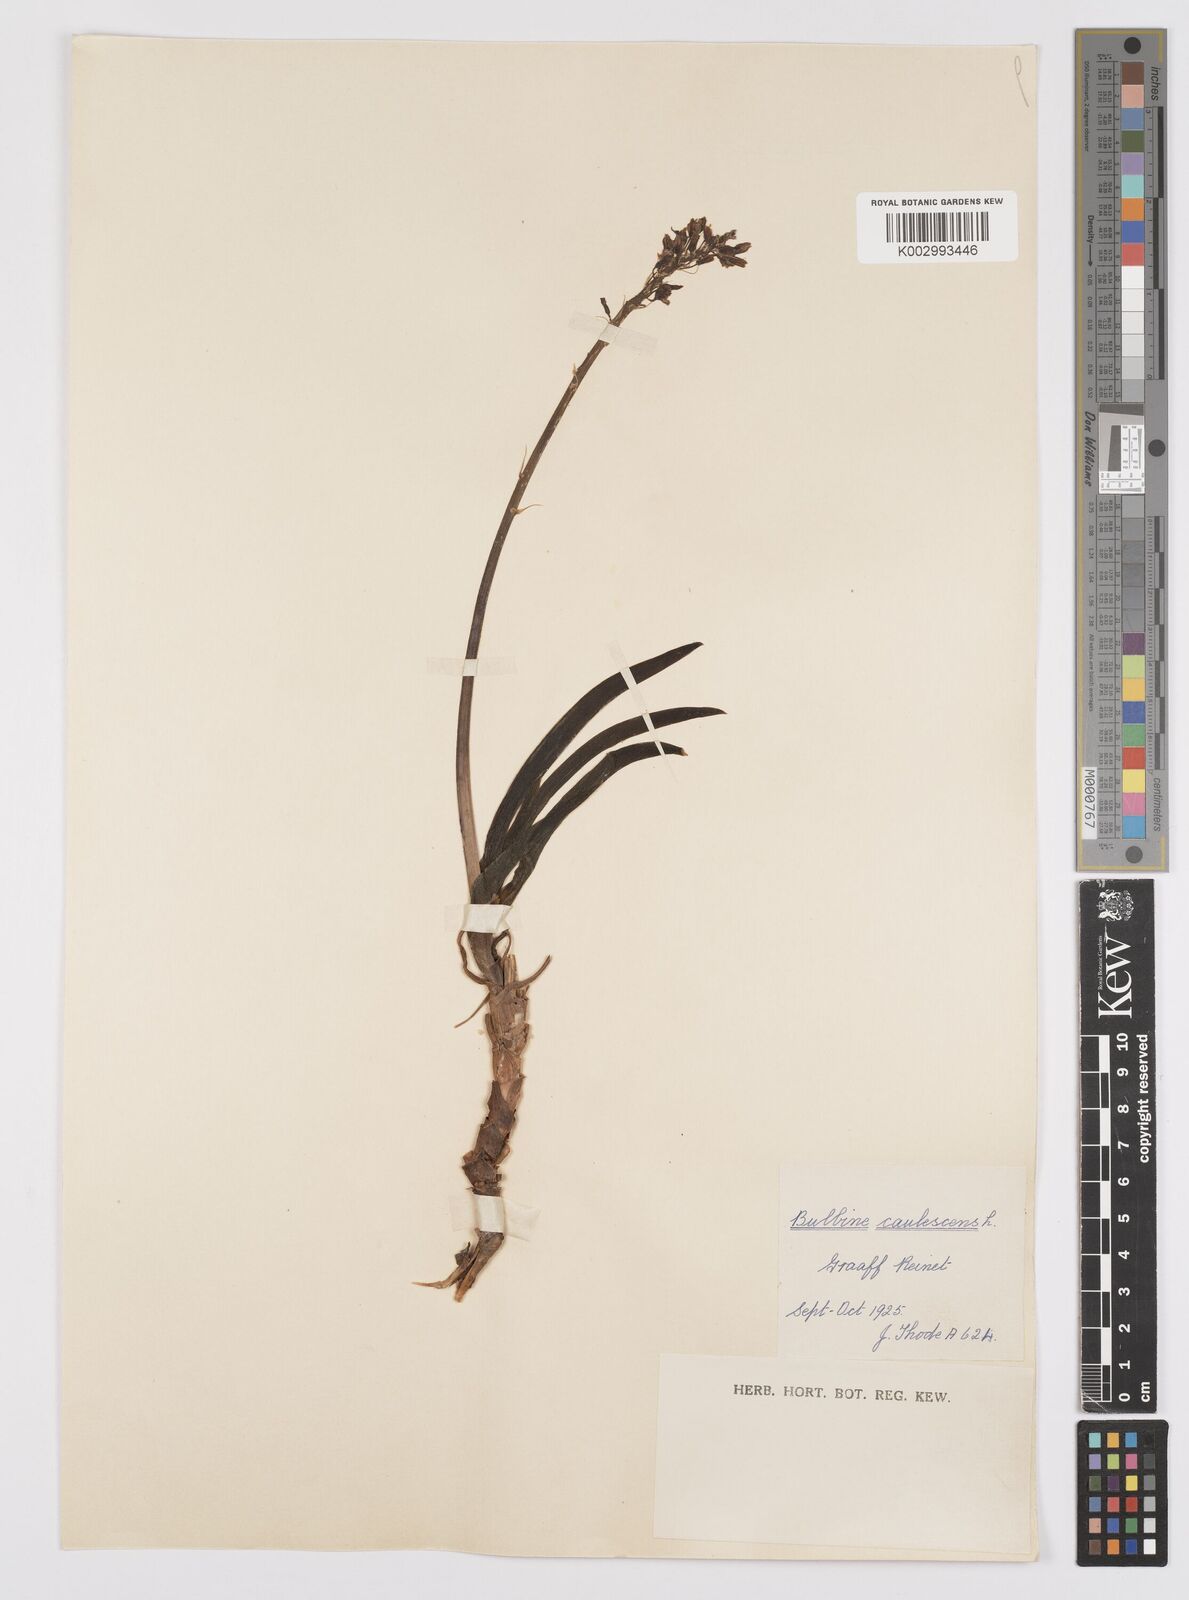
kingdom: Plantae
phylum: Tracheophyta
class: Liliopsida
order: Asparagales
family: Asphodelaceae
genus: Bulbine
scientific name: Bulbine frutescens
